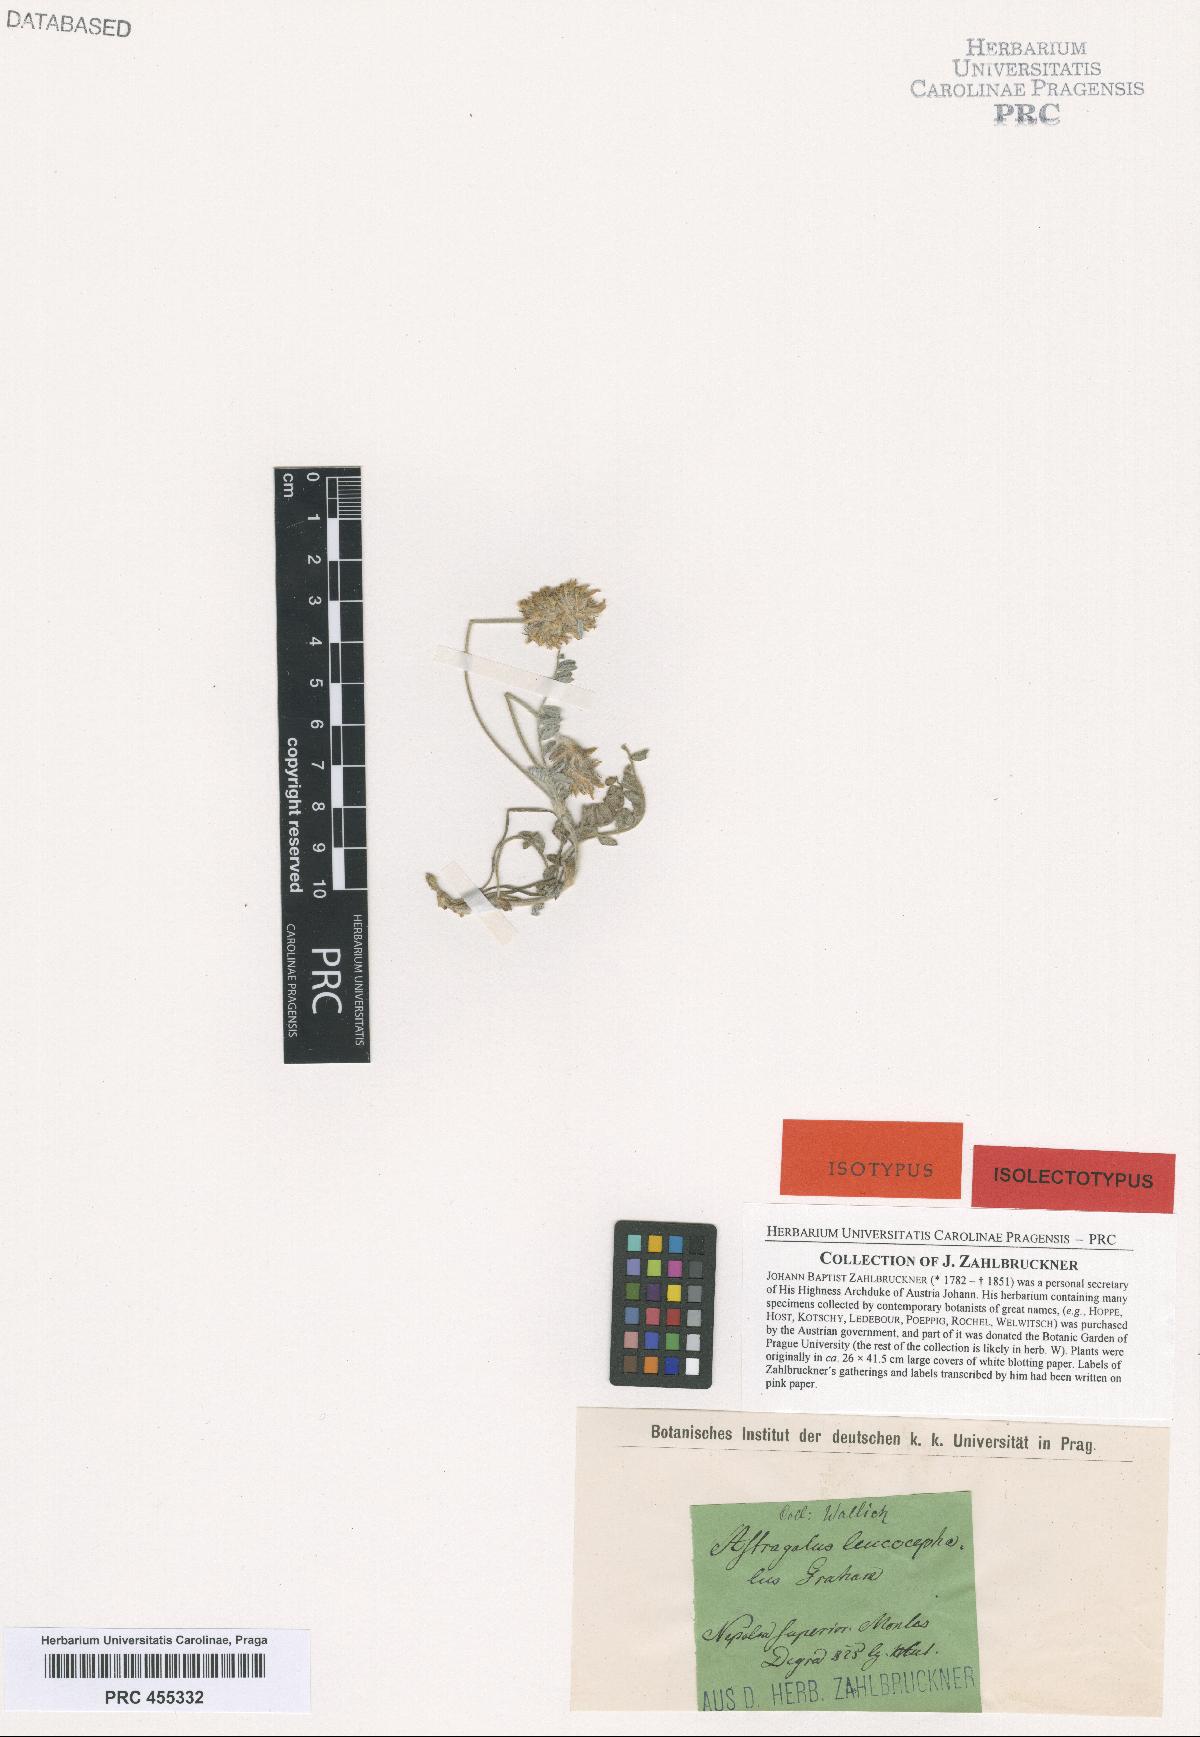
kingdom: Plantae
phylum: Tracheophyta
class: Magnoliopsida
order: Fabales
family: Fabaceae
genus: Astragalus
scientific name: Astragalus leucocephalus
